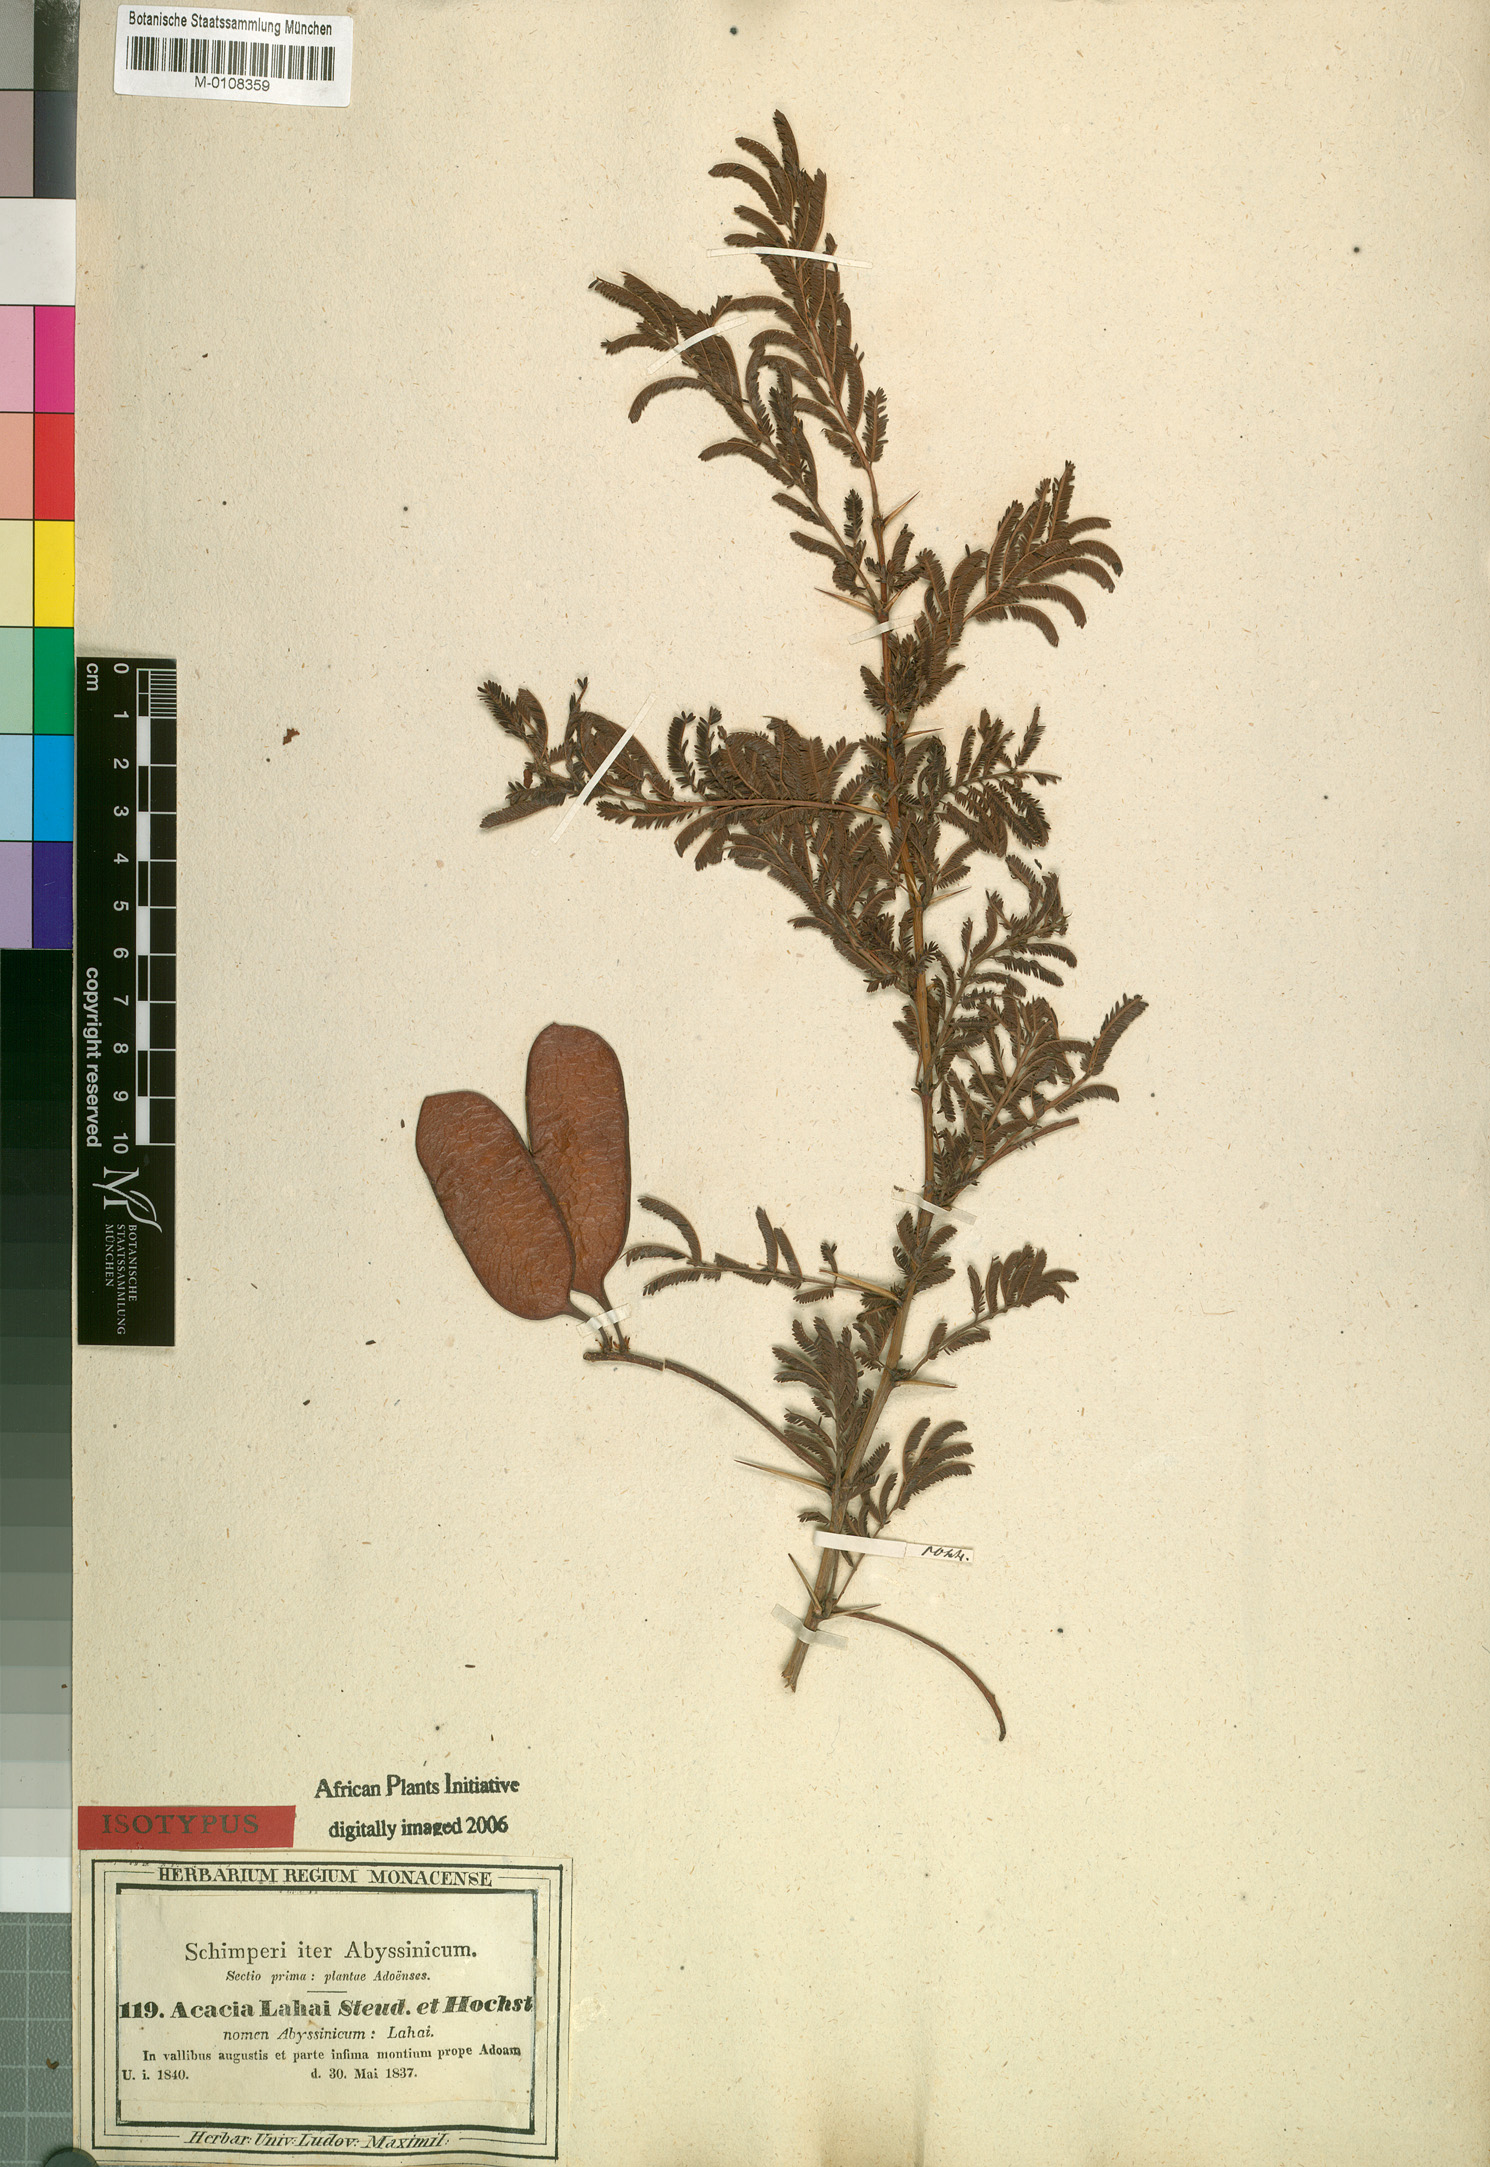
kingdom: Plantae
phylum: Tracheophyta
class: Magnoliopsida
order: Fabales
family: Fabaceae
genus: Vachellia
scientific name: Vachellia lahai
